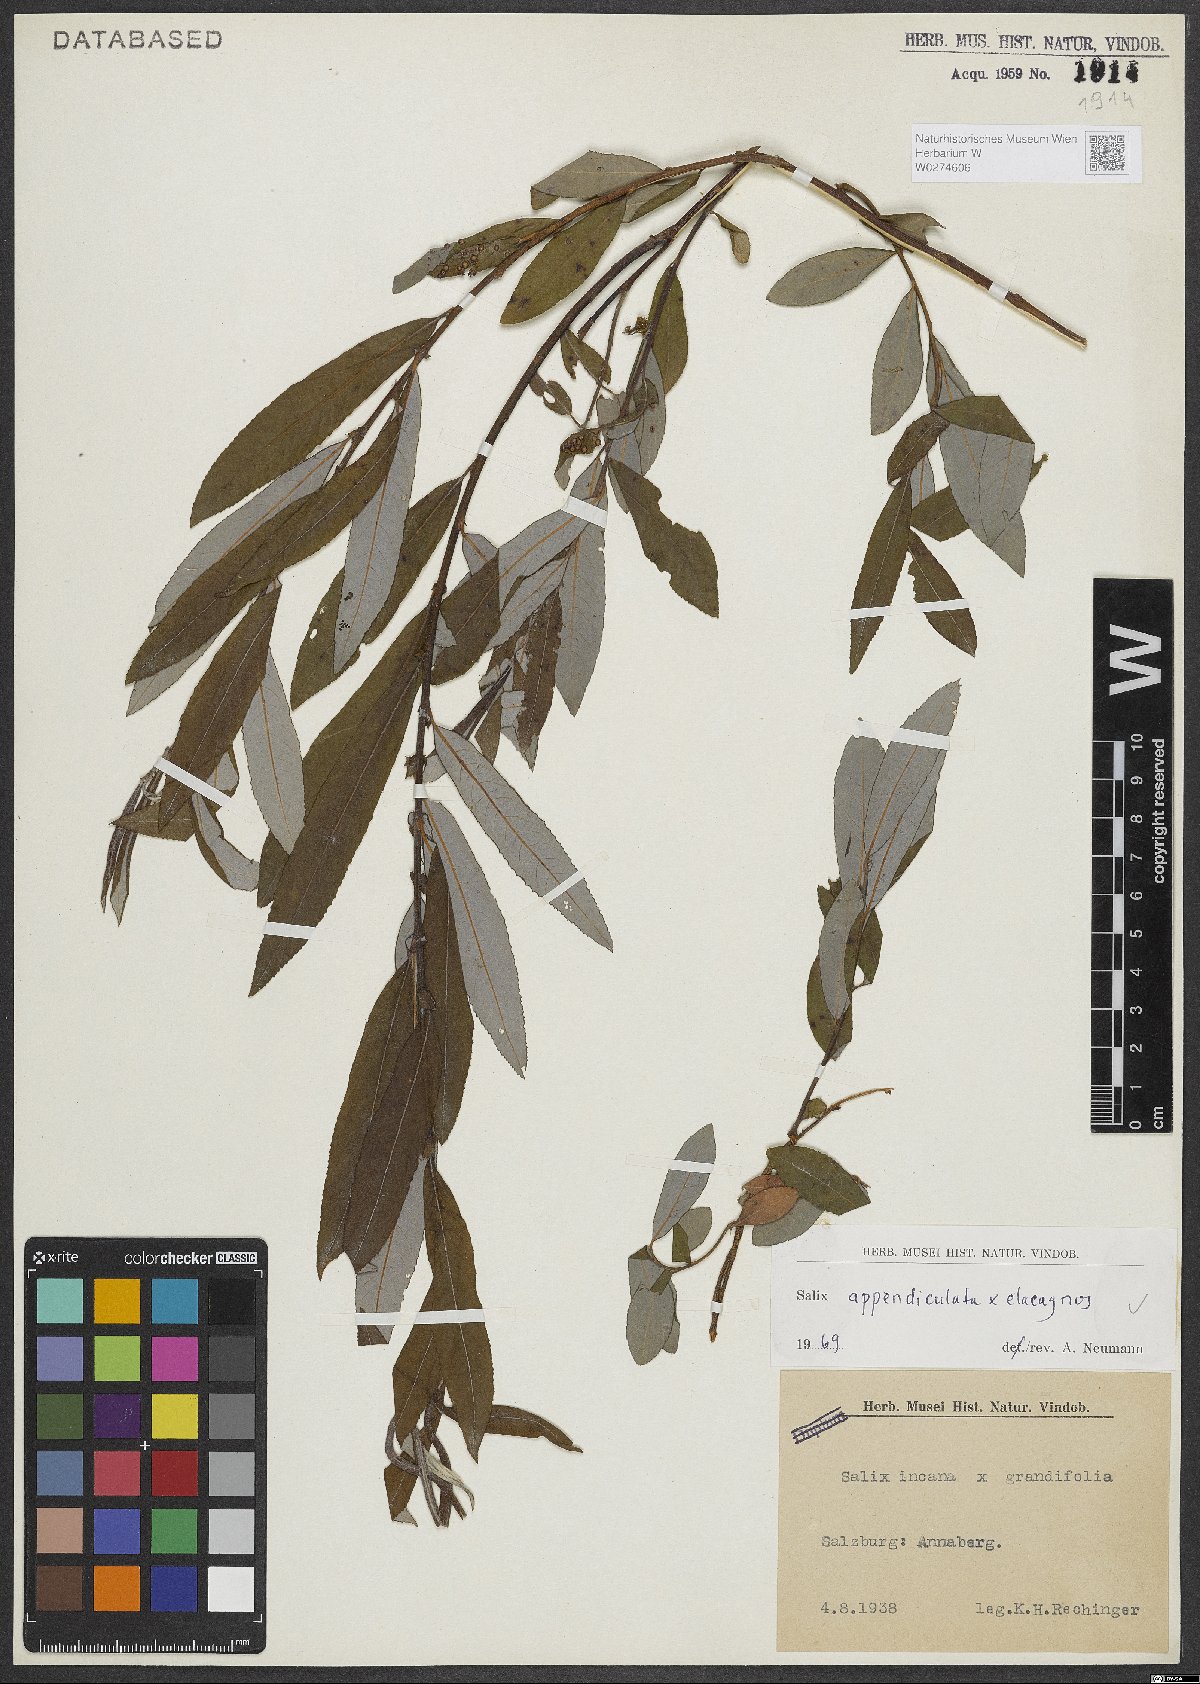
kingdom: Plantae
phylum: Tracheophyta
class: Magnoliopsida
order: Malpighiales
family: Salicaceae
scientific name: Salicaceae
